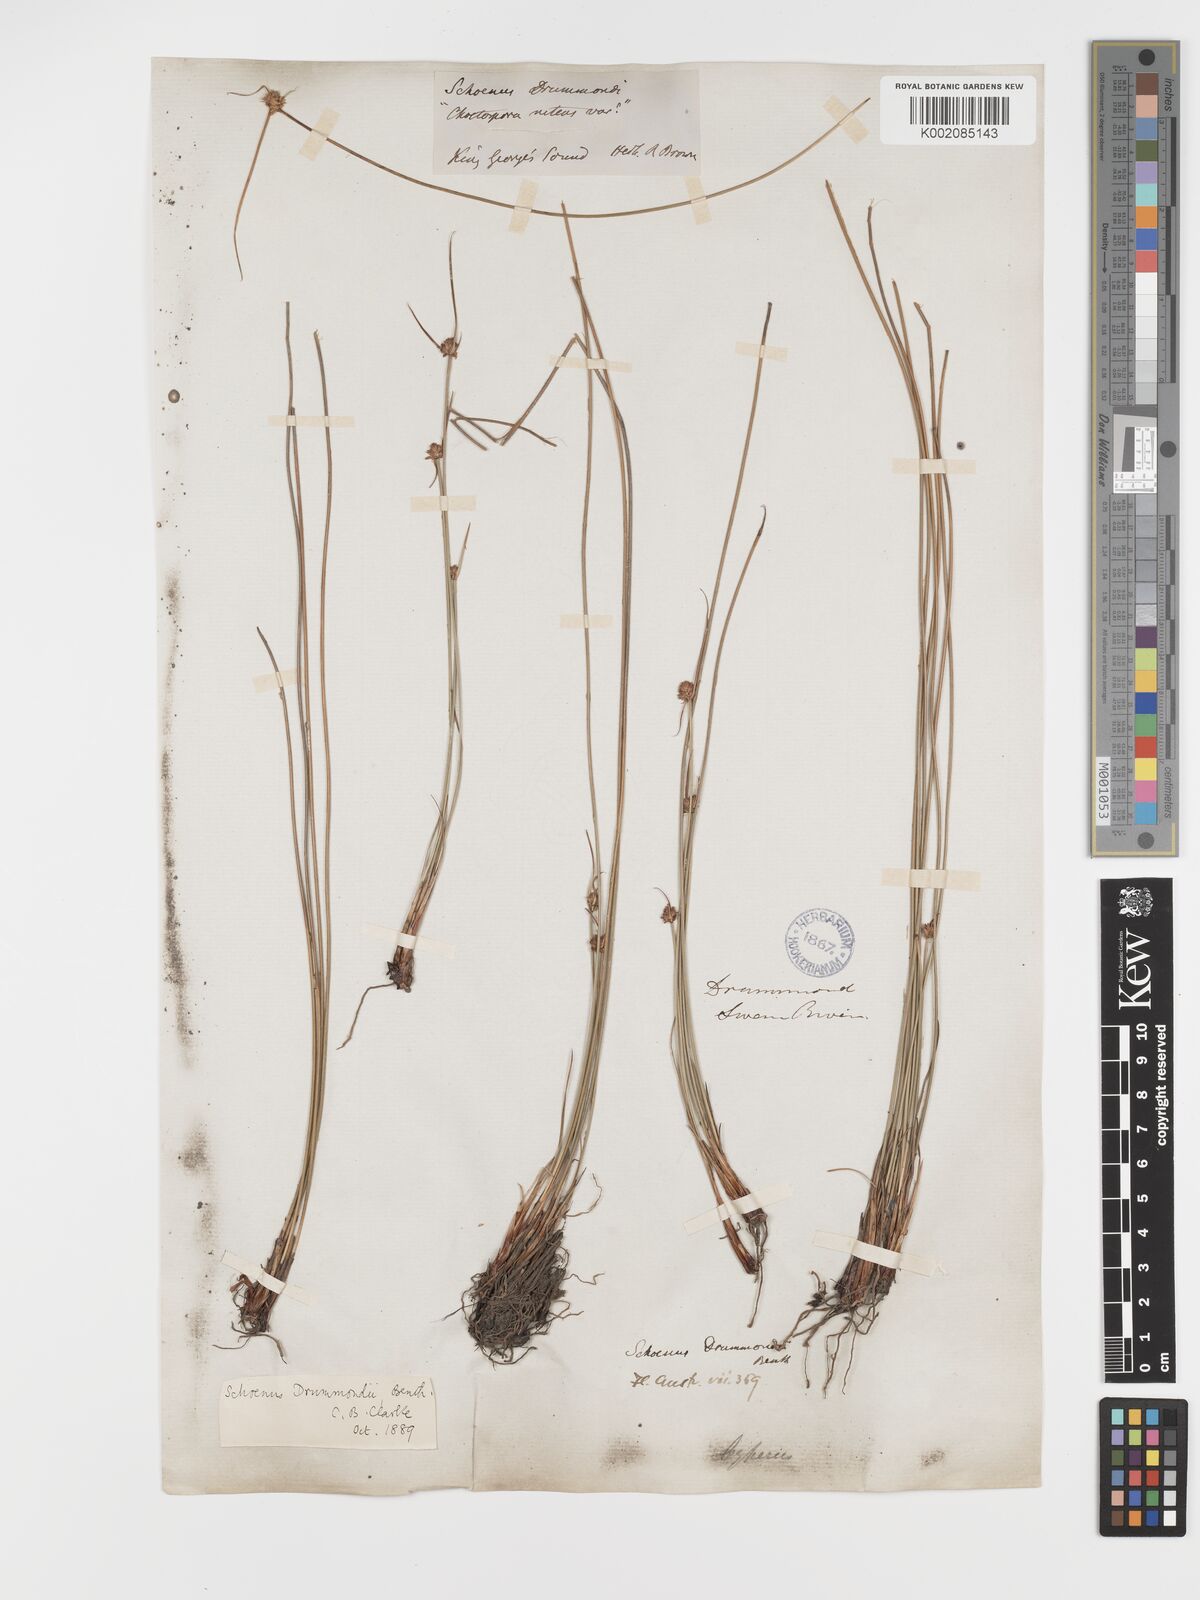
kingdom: Plantae
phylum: Tracheophyta
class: Liliopsida
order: Poales
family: Cyperaceae
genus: Schoenus
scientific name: Schoenus submicrostachyus
